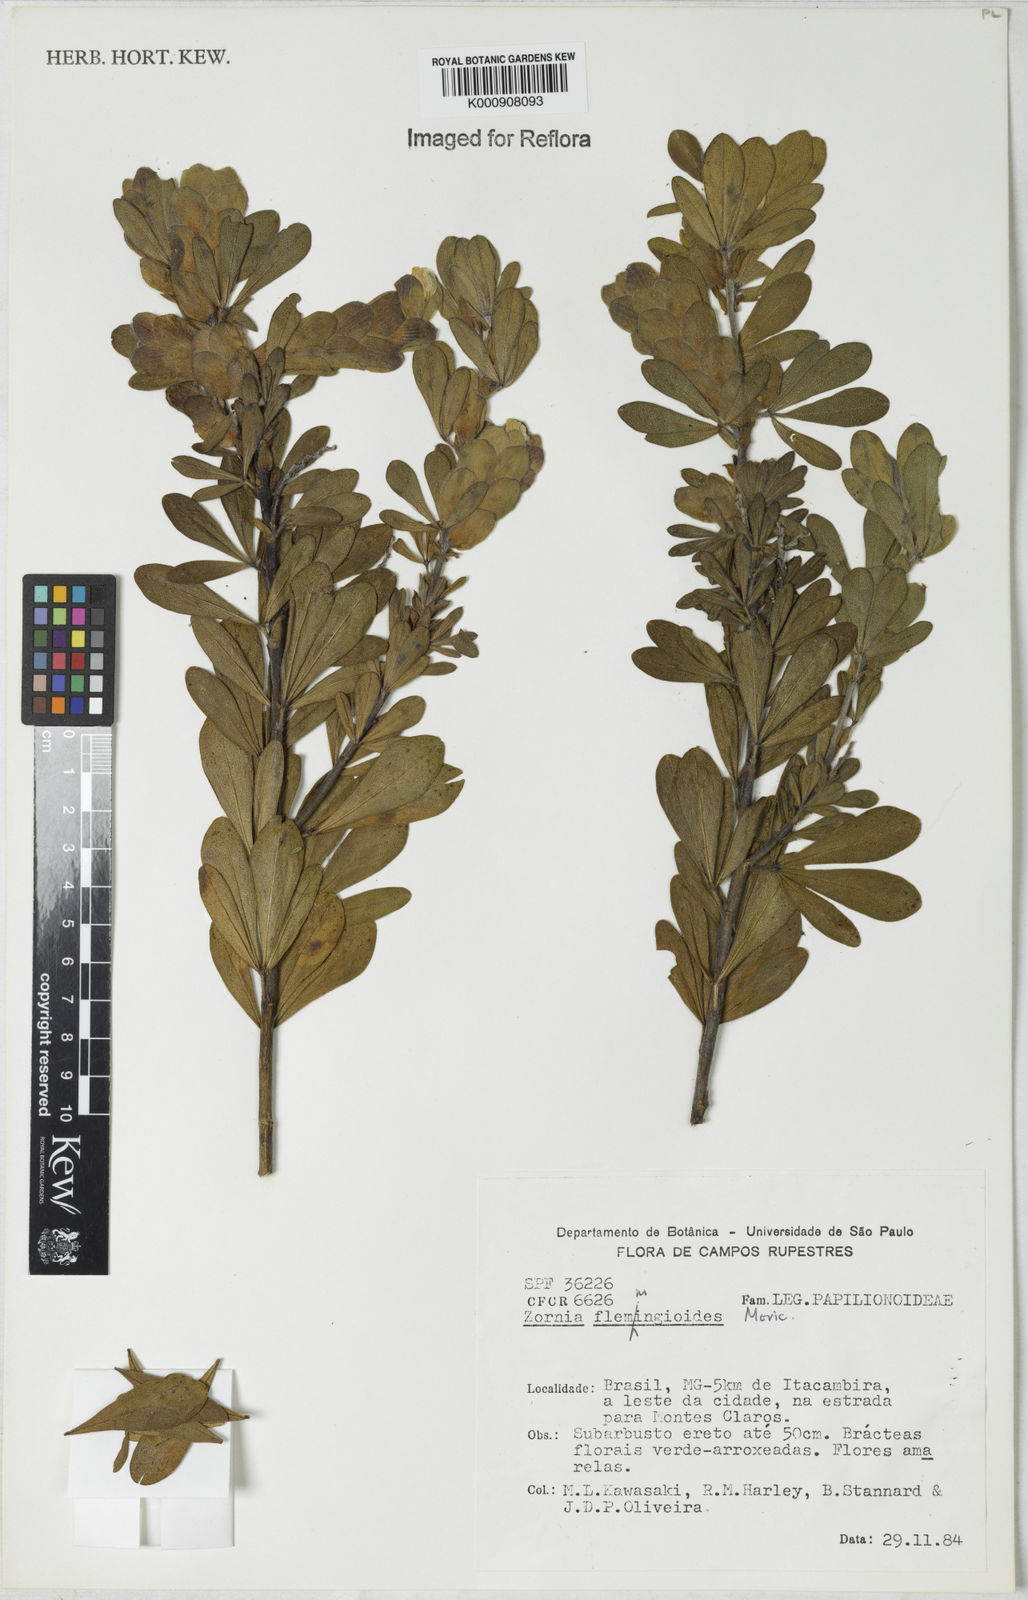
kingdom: Plantae
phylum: Tracheophyta
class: Magnoliopsida
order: Fabales
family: Fabaceae
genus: Zornia
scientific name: Zornia flemmingioides
